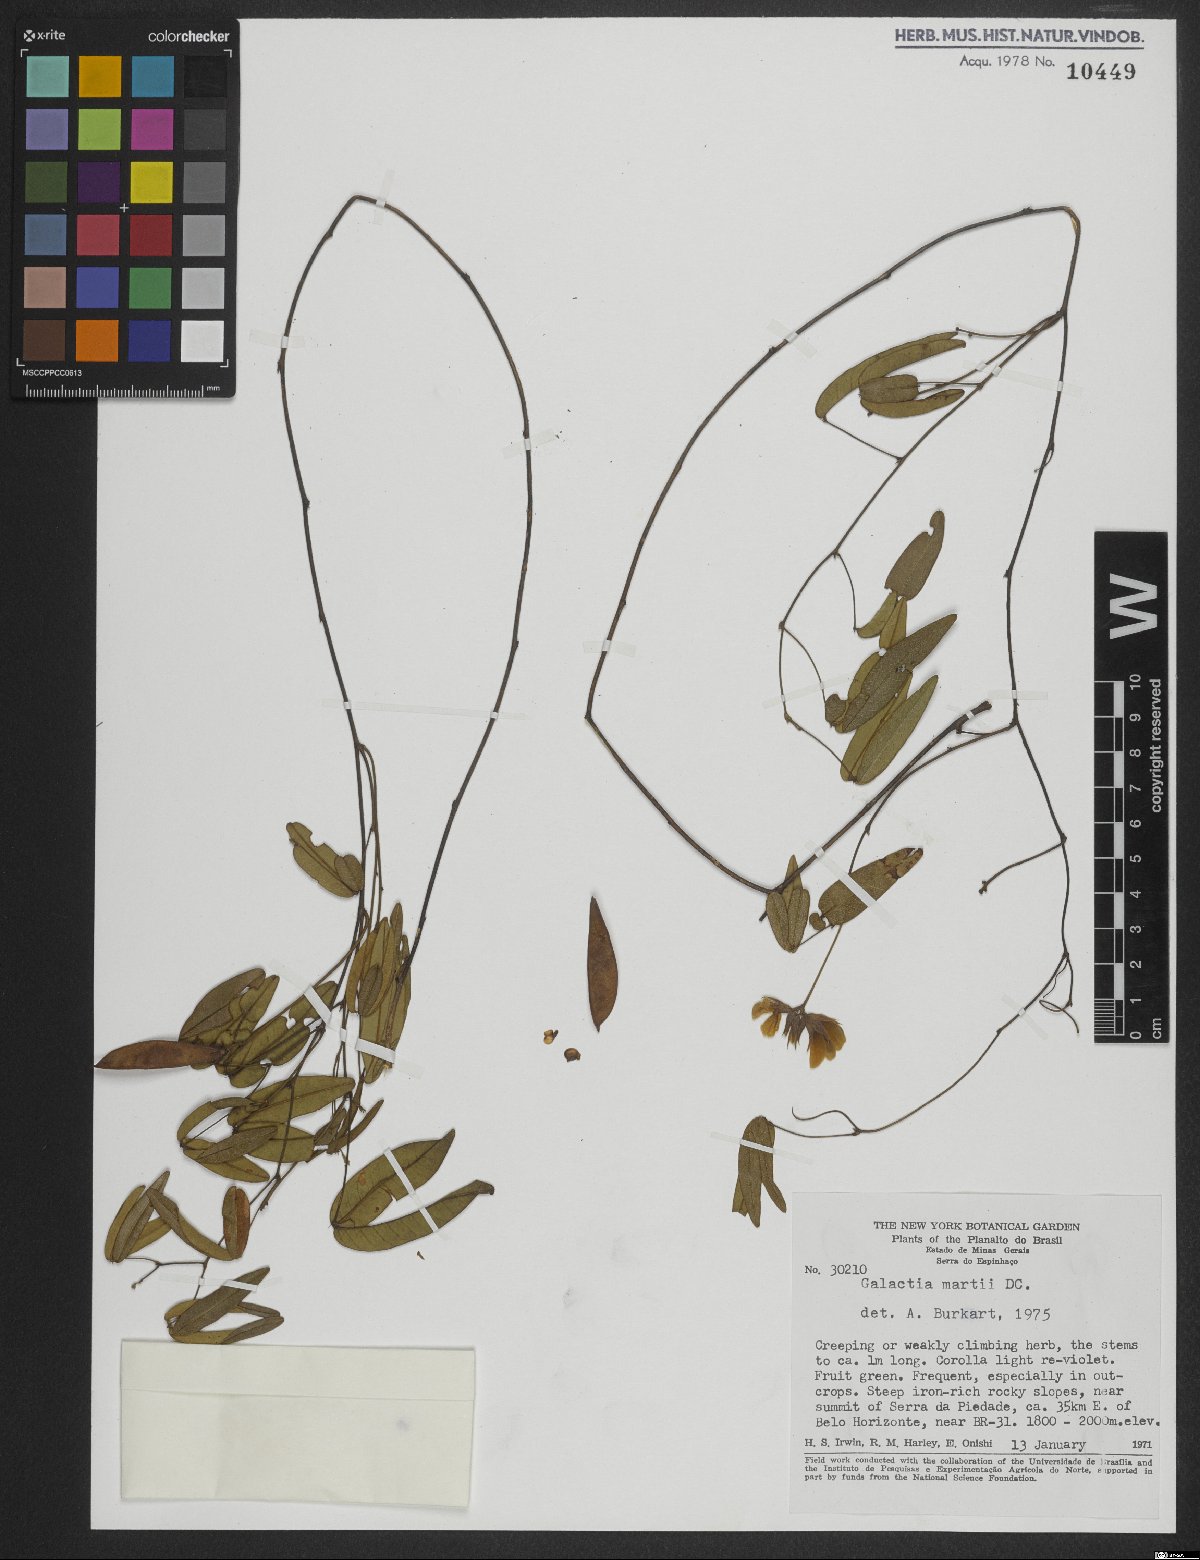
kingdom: Plantae
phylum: Tracheophyta
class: Magnoliopsida
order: Fabales
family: Fabaceae
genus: Betencourtia
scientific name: Betencourtia martii
